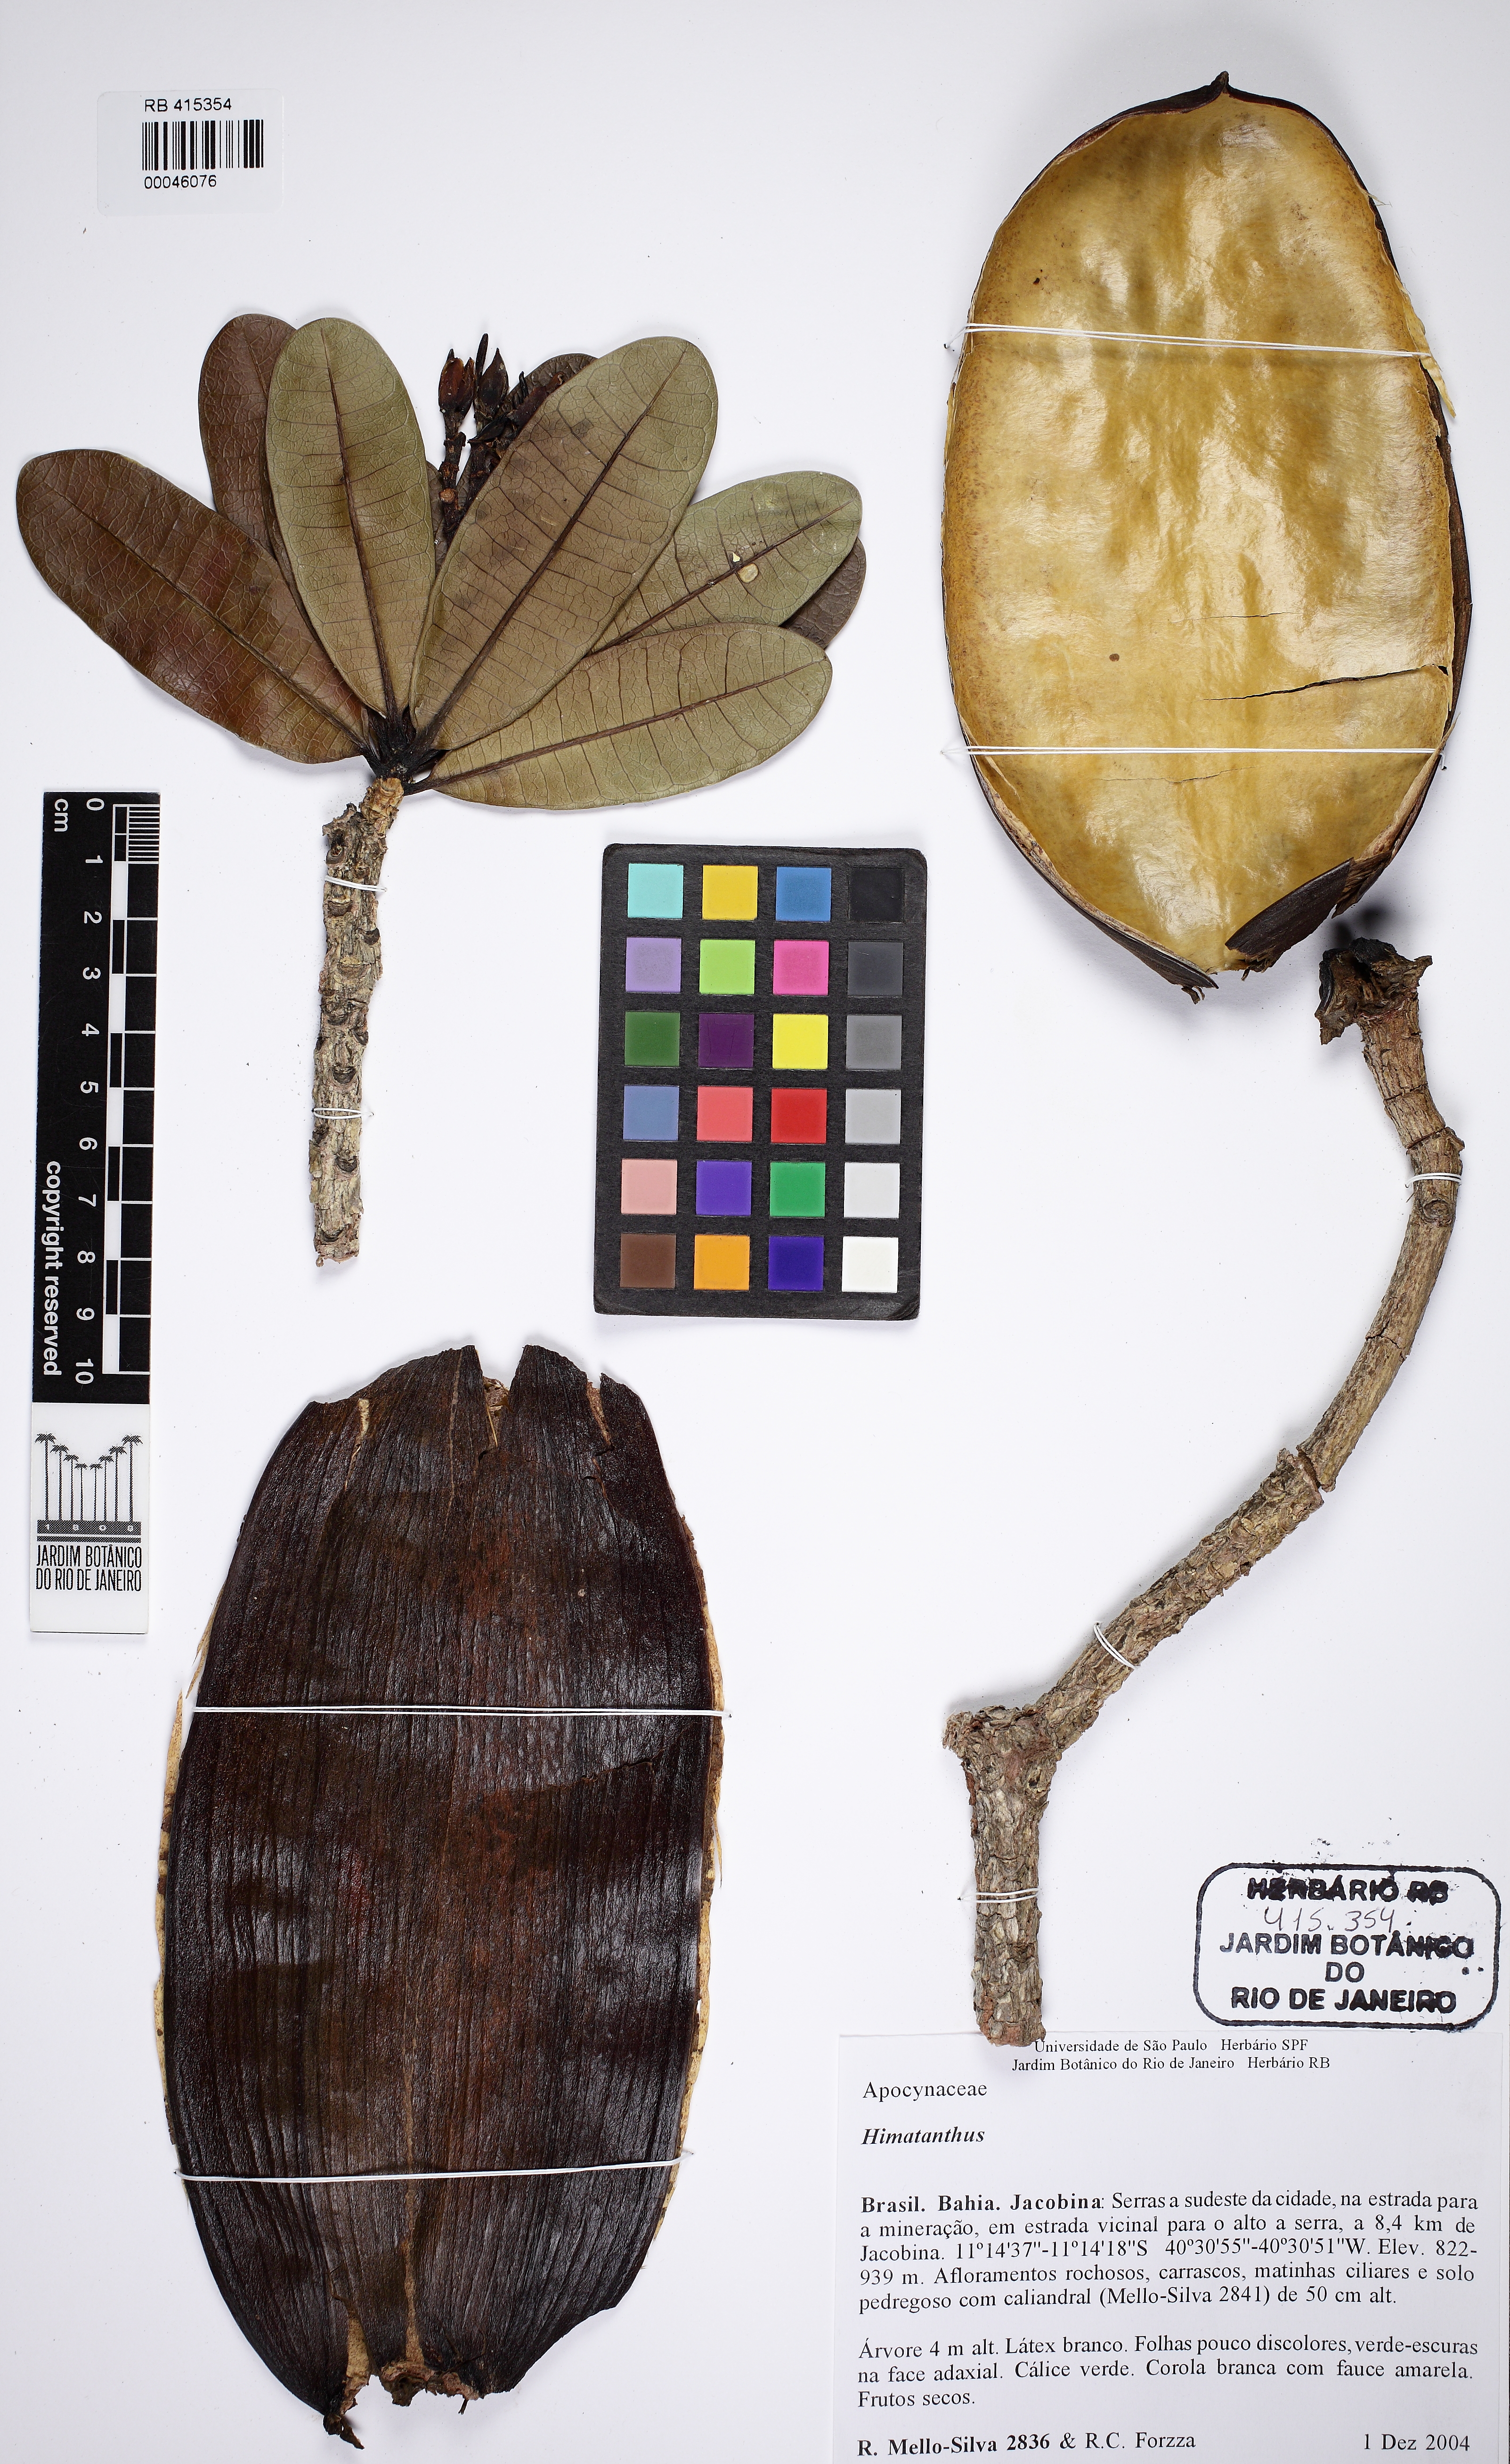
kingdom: Plantae
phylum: Tracheophyta
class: Magnoliopsida
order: Gentianales
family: Apocynaceae
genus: Himatanthus
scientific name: Himatanthus
